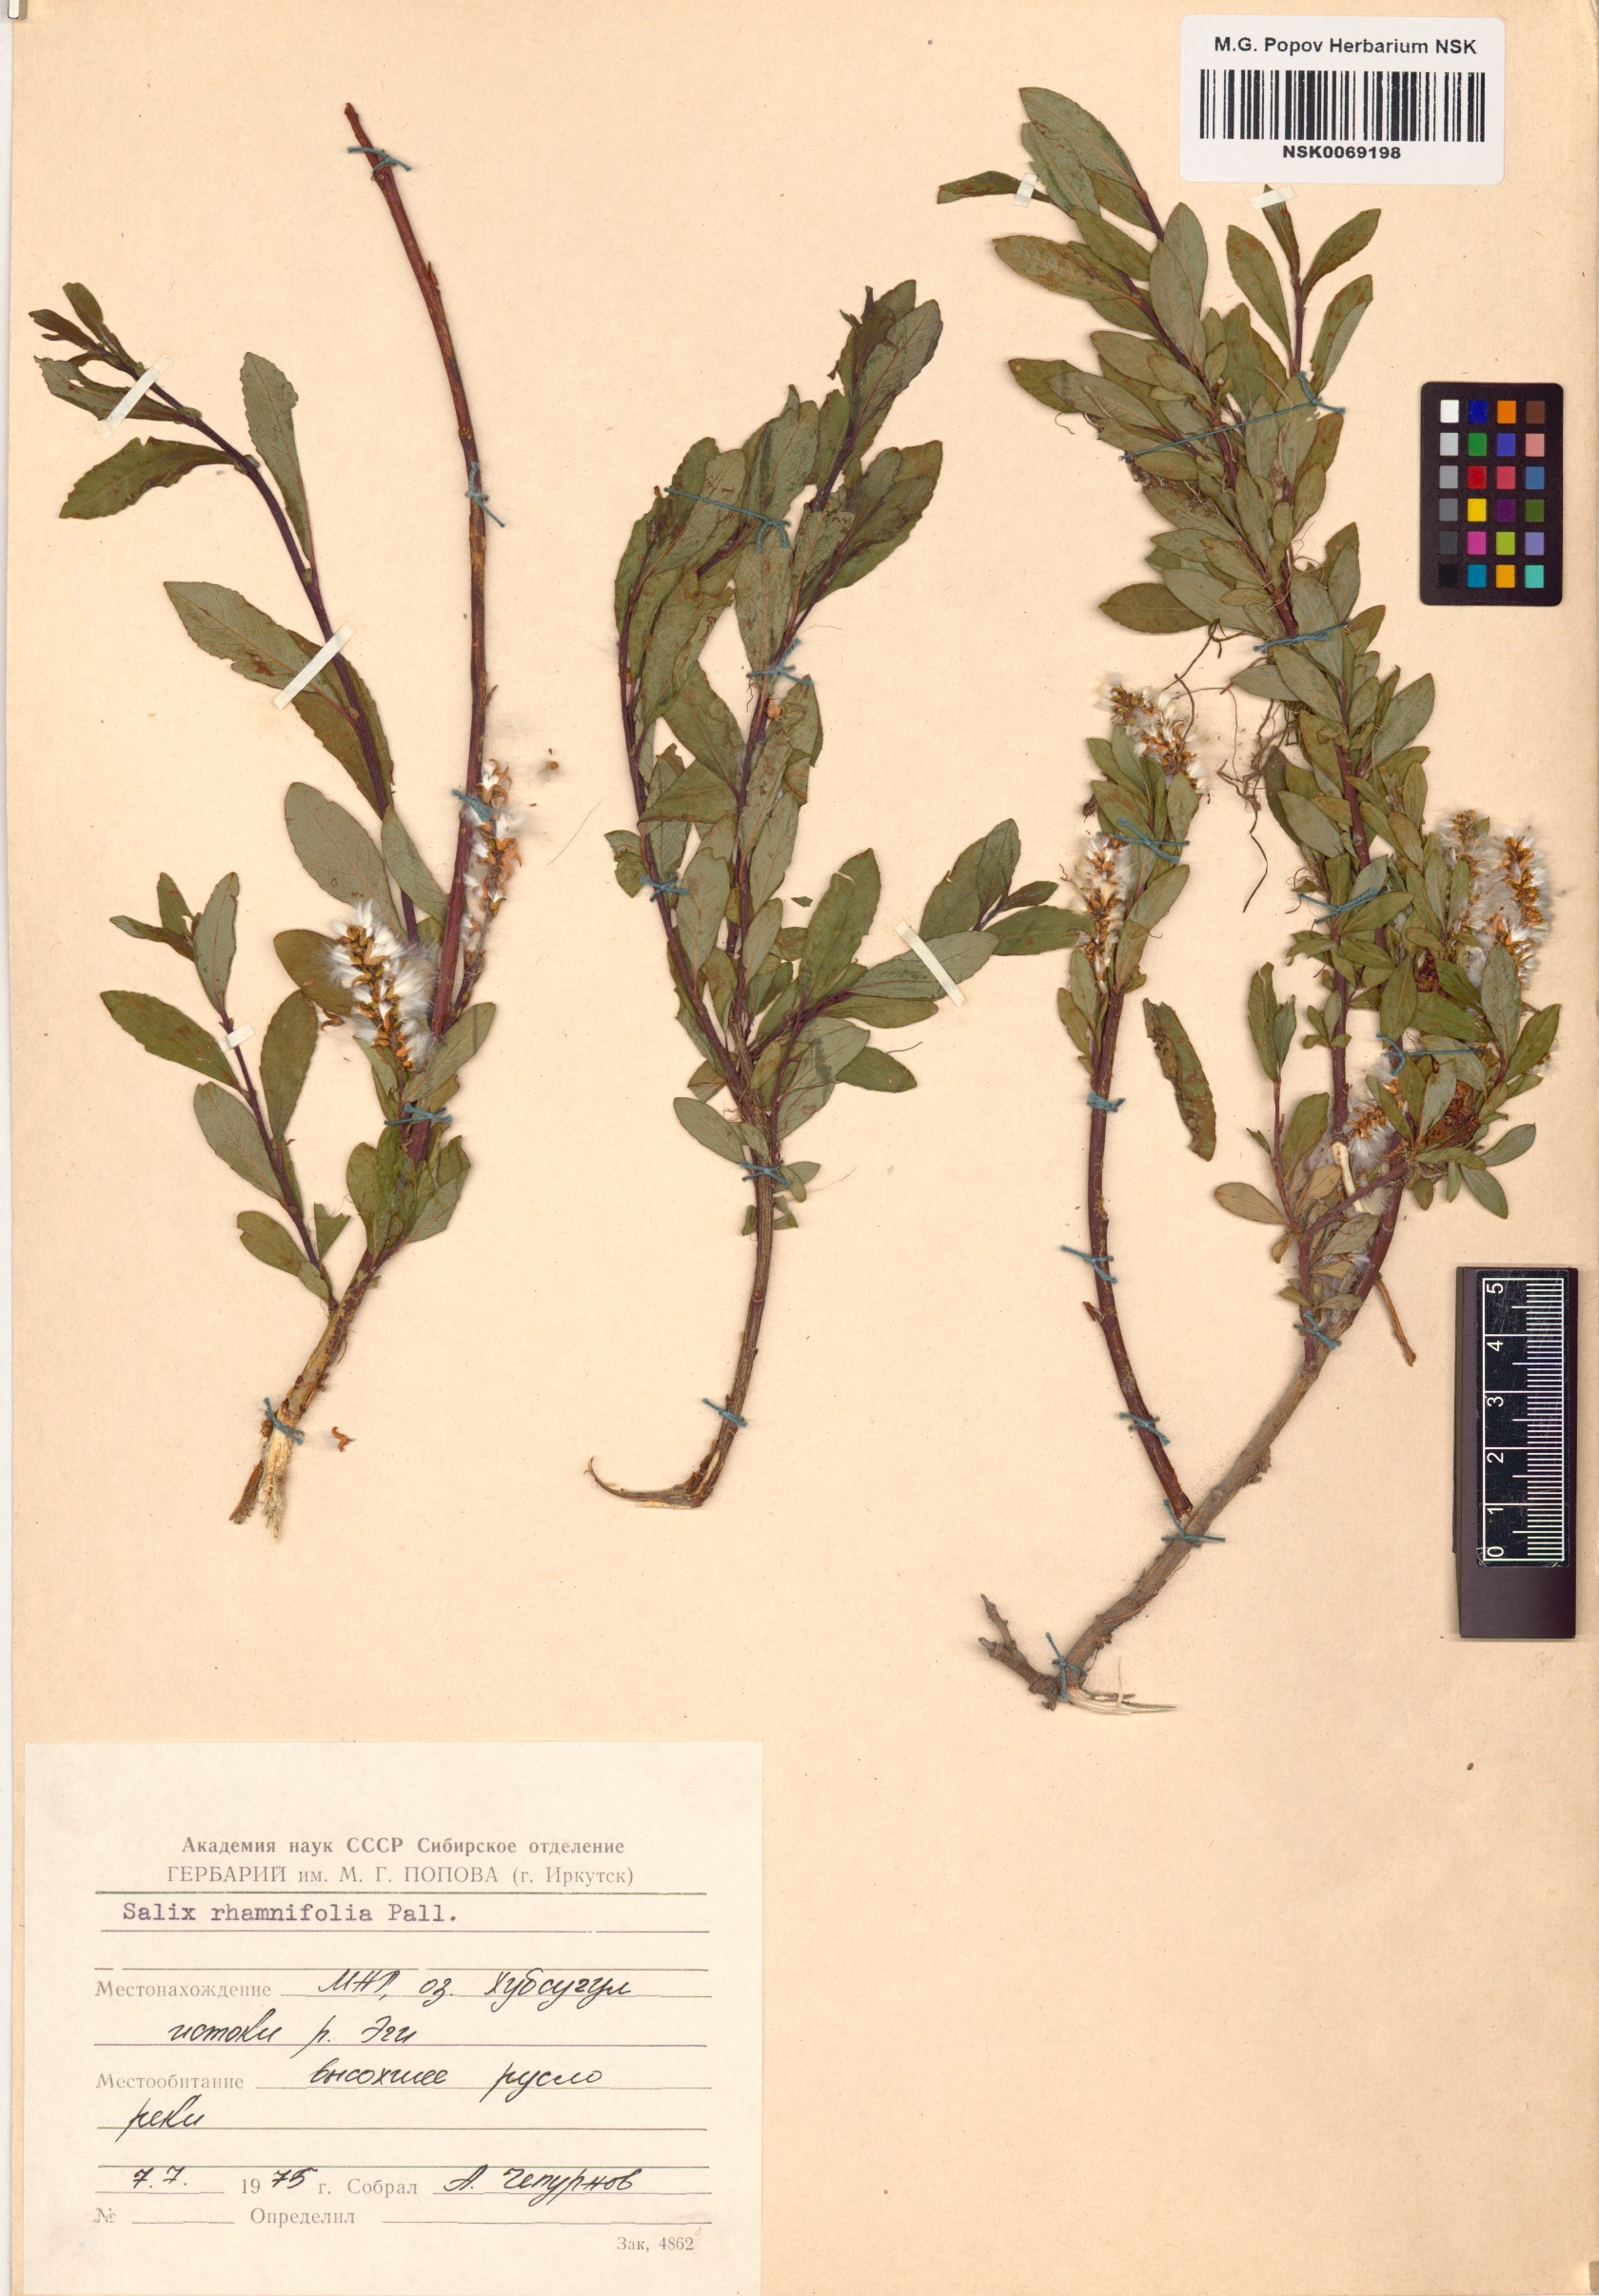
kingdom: Plantae
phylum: Tracheophyta
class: Magnoliopsida
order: Malpighiales
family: Salicaceae
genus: Salix
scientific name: Salix rhamnifolia
